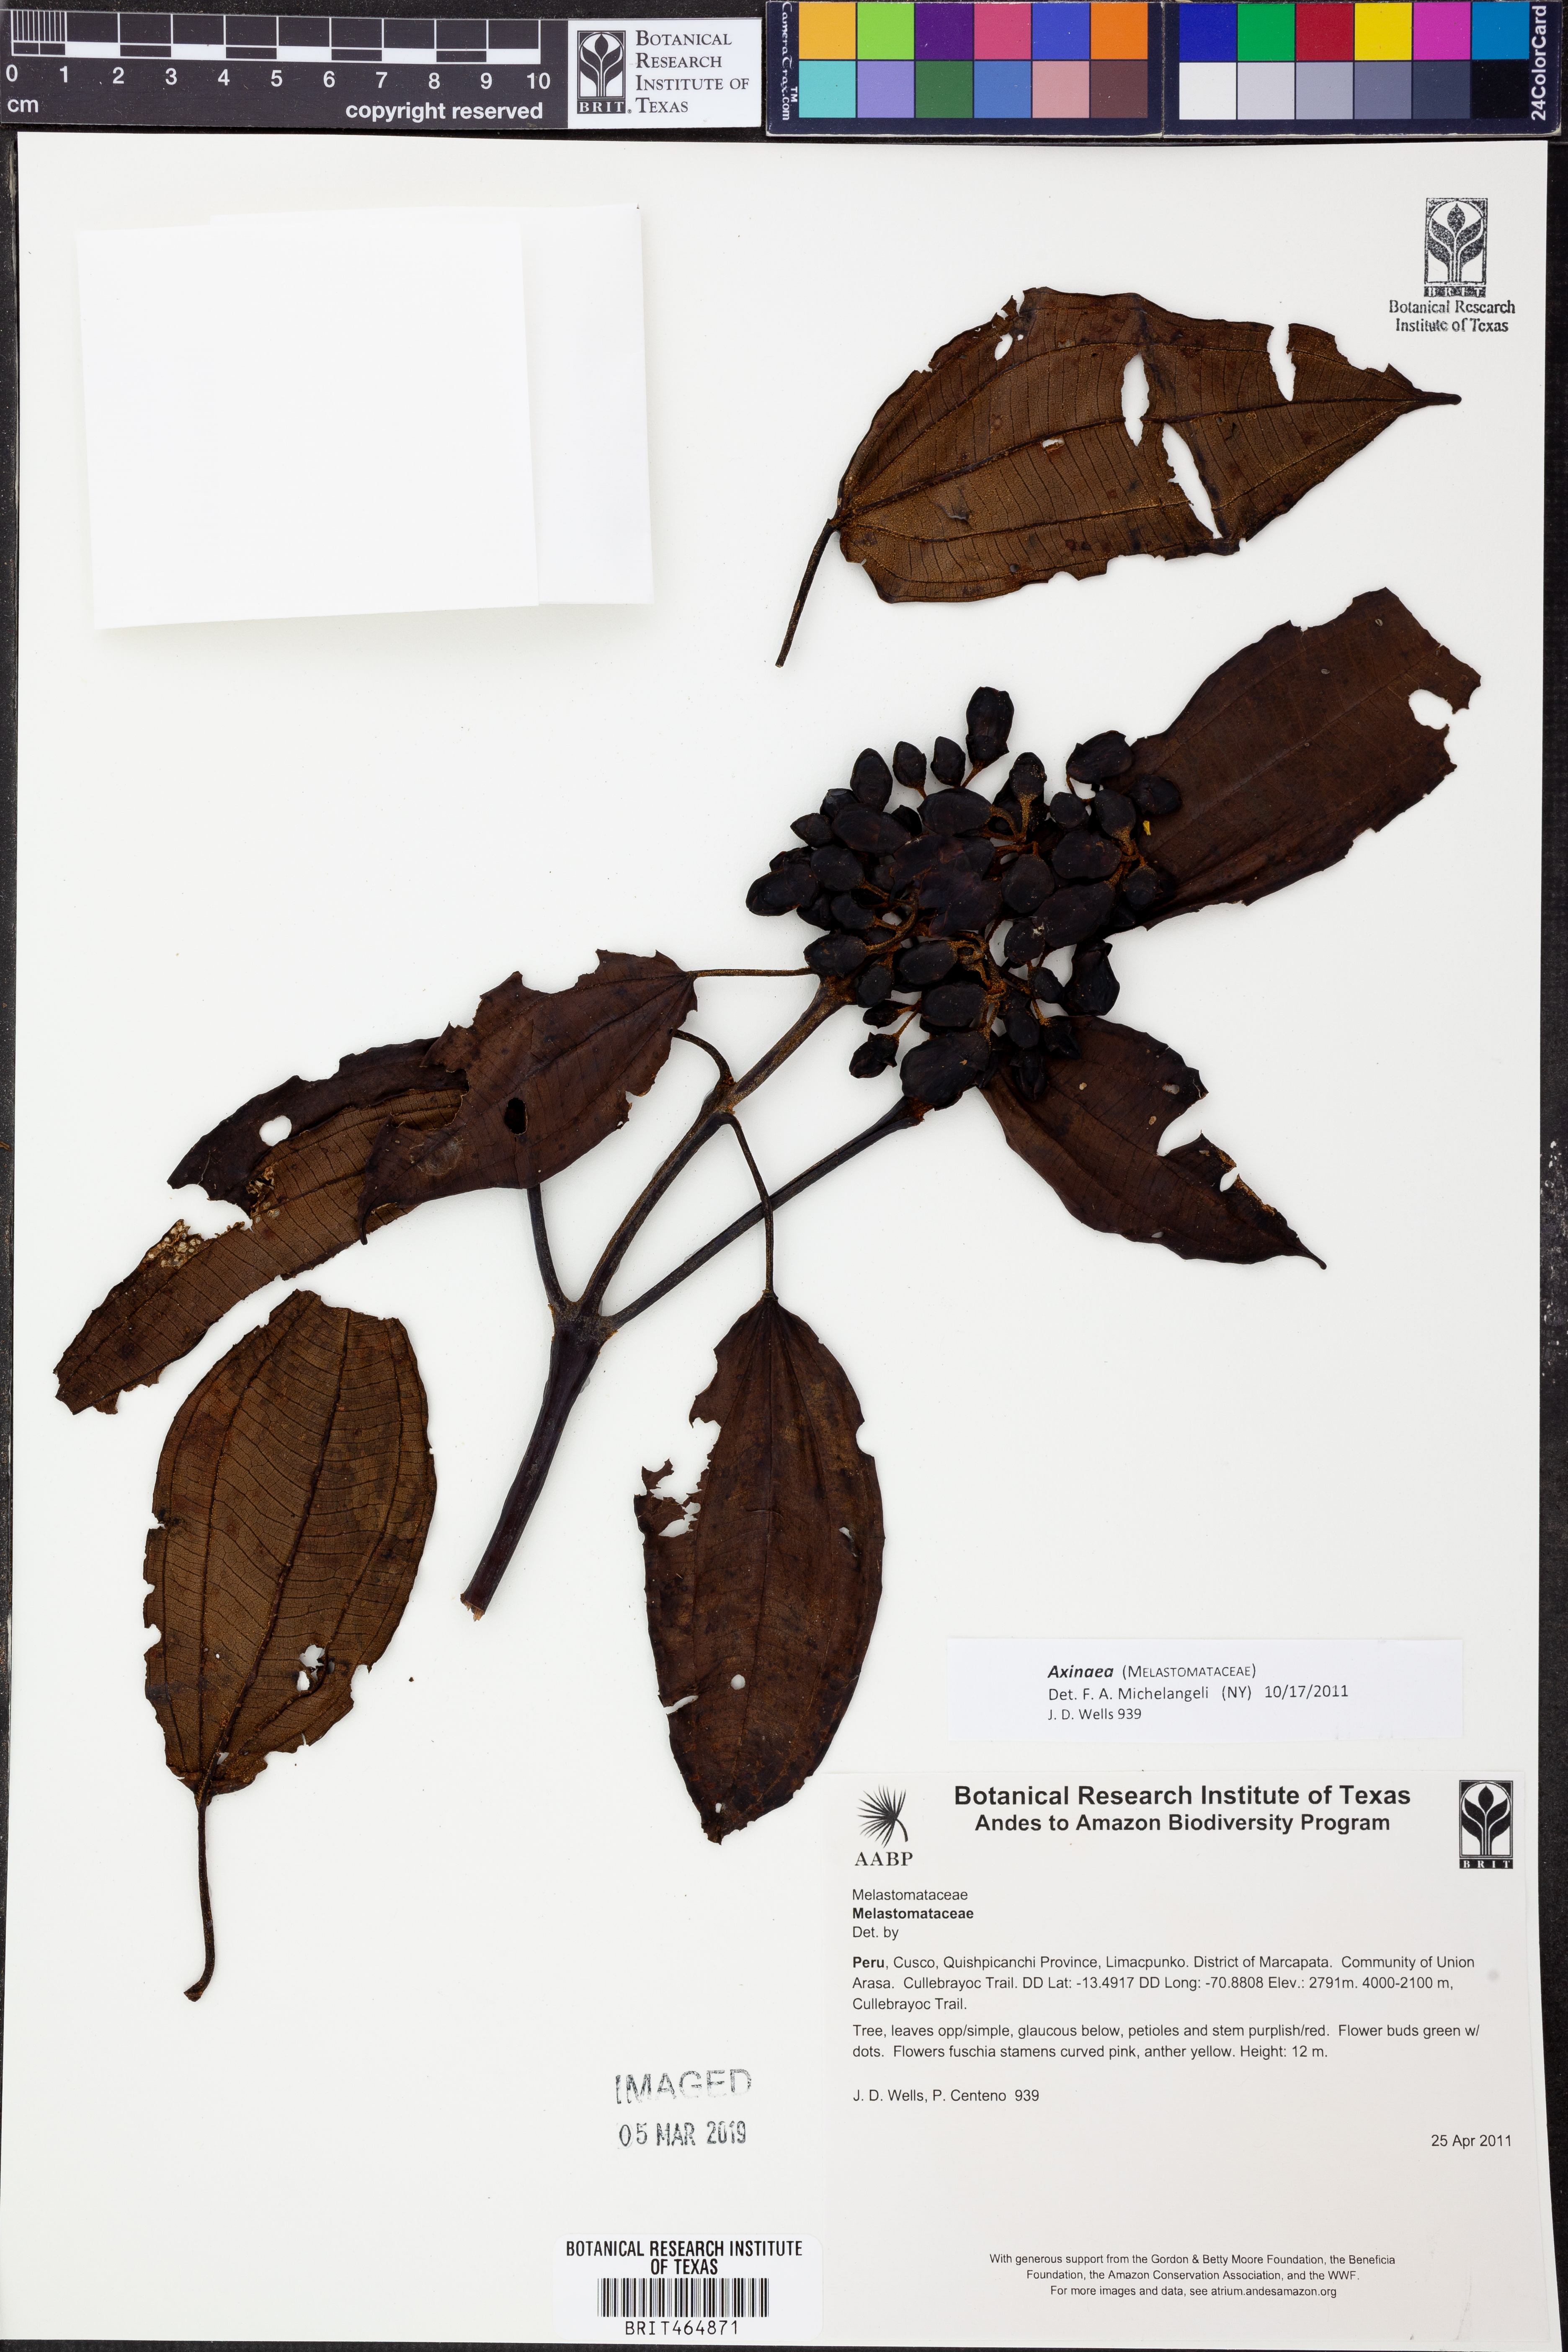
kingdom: Plantae
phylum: Tracheophyta
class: Magnoliopsida
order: Myrtales
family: Melastomataceae
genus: Axinaea
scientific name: Axinaea
